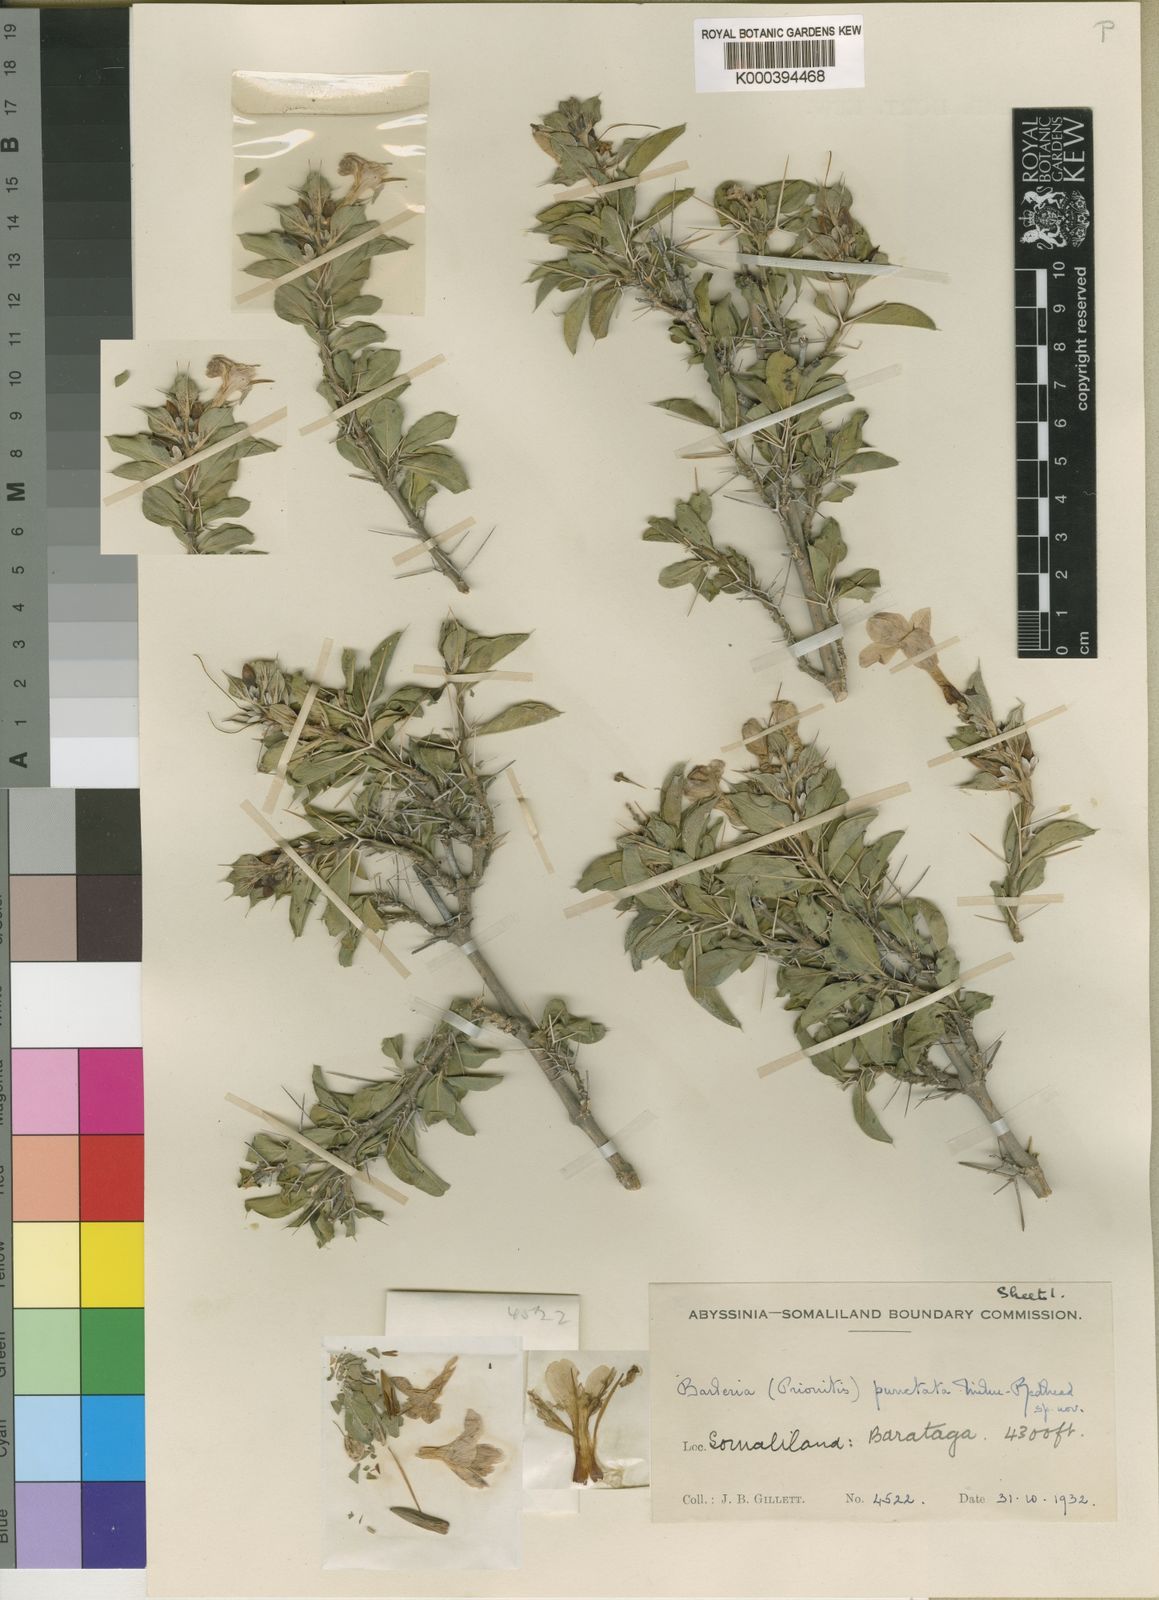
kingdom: Plantae
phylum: Tracheophyta
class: Magnoliopsida
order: Lamiales
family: Acanthaceae
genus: Barleria
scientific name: Barleria punctata
